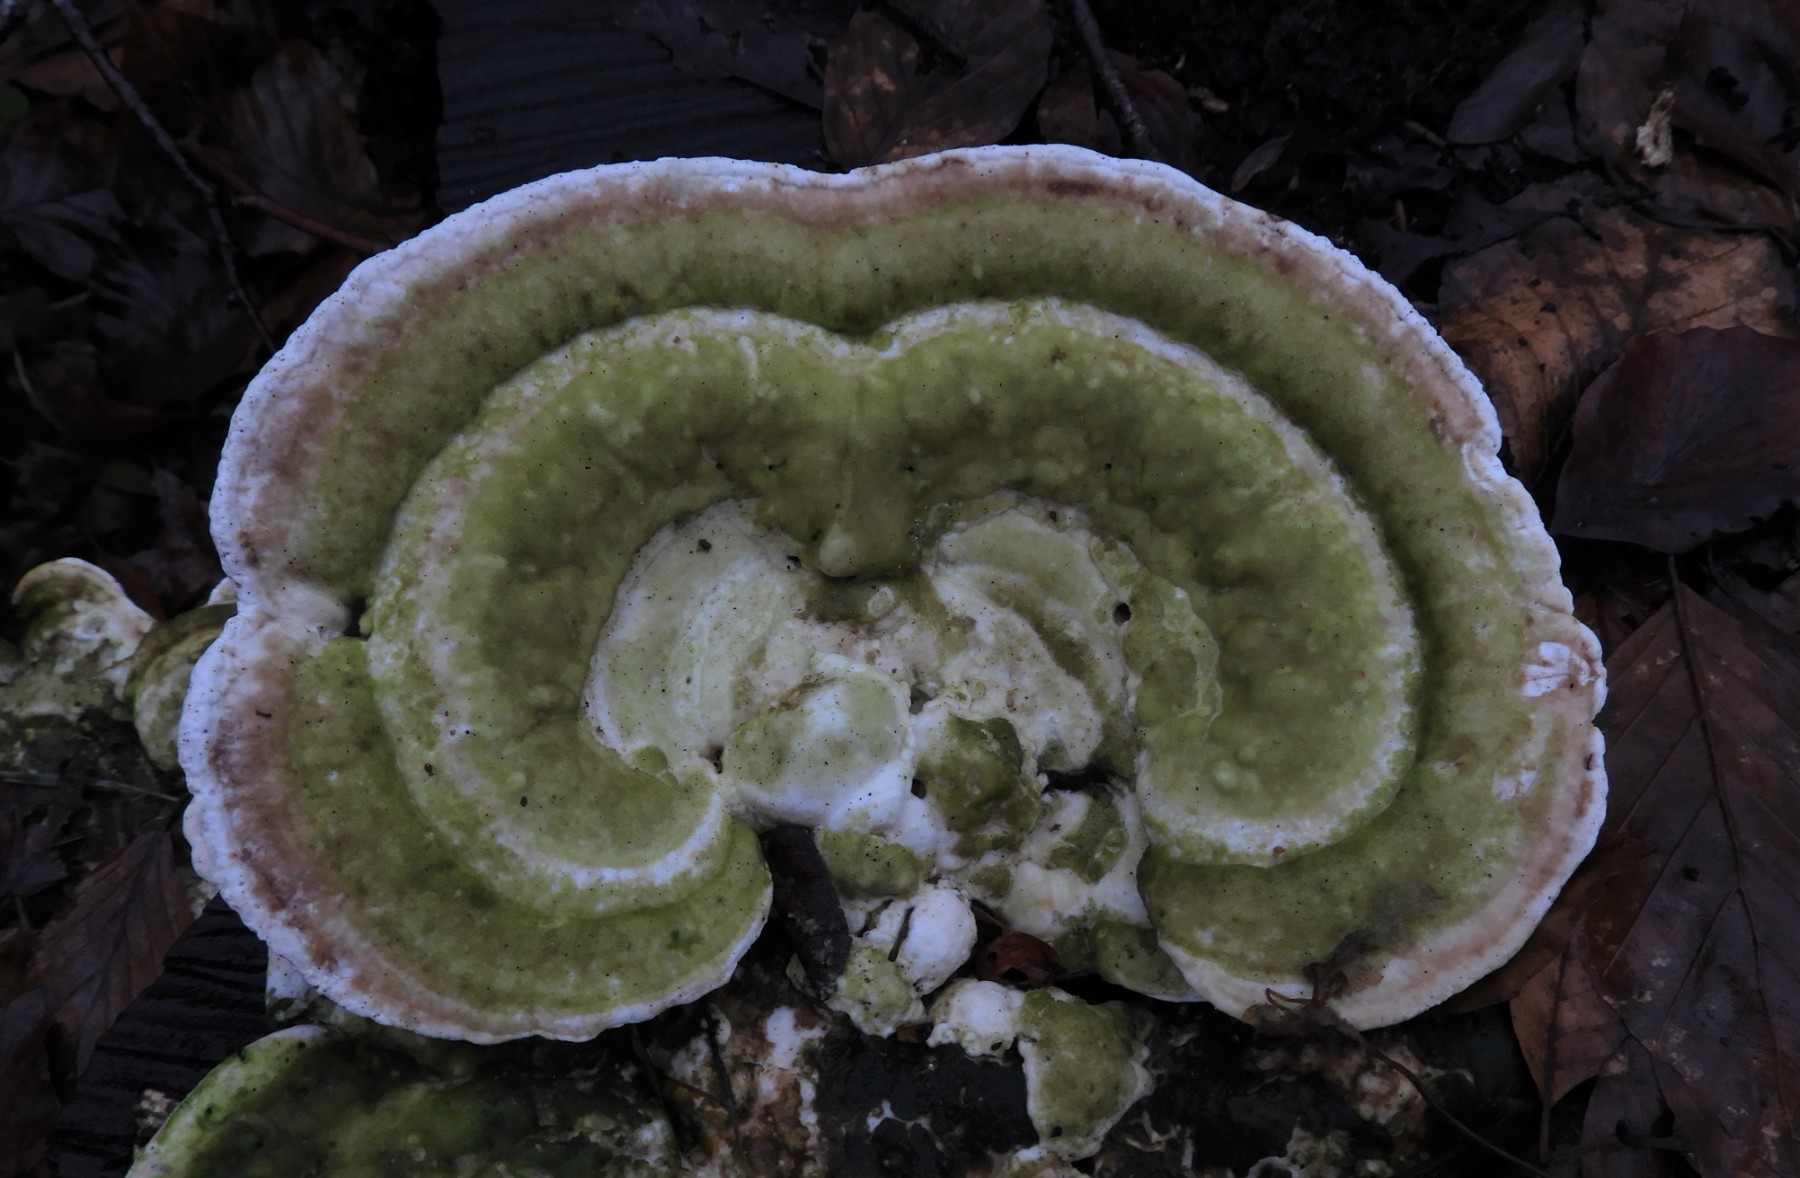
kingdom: Fungi
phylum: Basidiomycota
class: Agaricomycetes
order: Polyporales
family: Polyporaceae
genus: Trametes
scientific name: Trametes gibbosa
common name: puklet læderporesvamp
